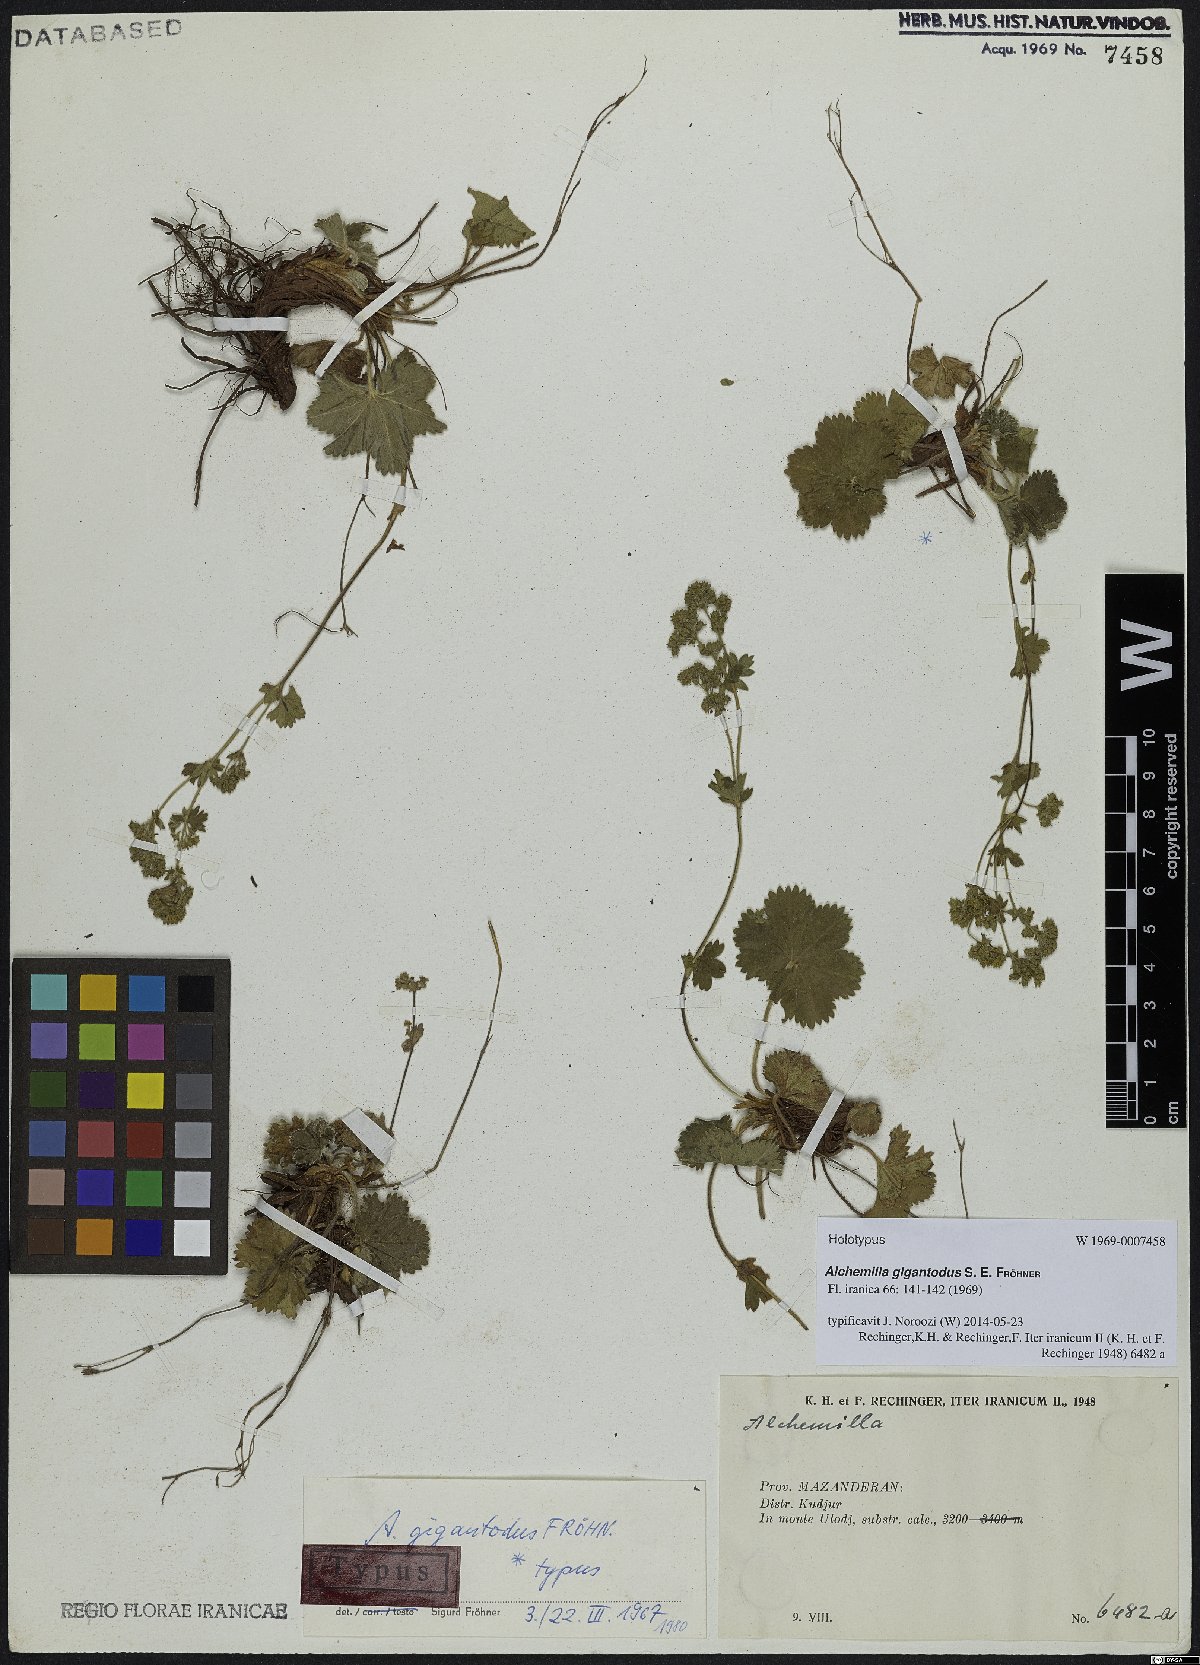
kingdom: Plantae
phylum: Tracheophyta
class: Magnoliopsida
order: Rosales
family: Rosaceae
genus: Alchemilla
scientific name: Alchemilla gigantodus
